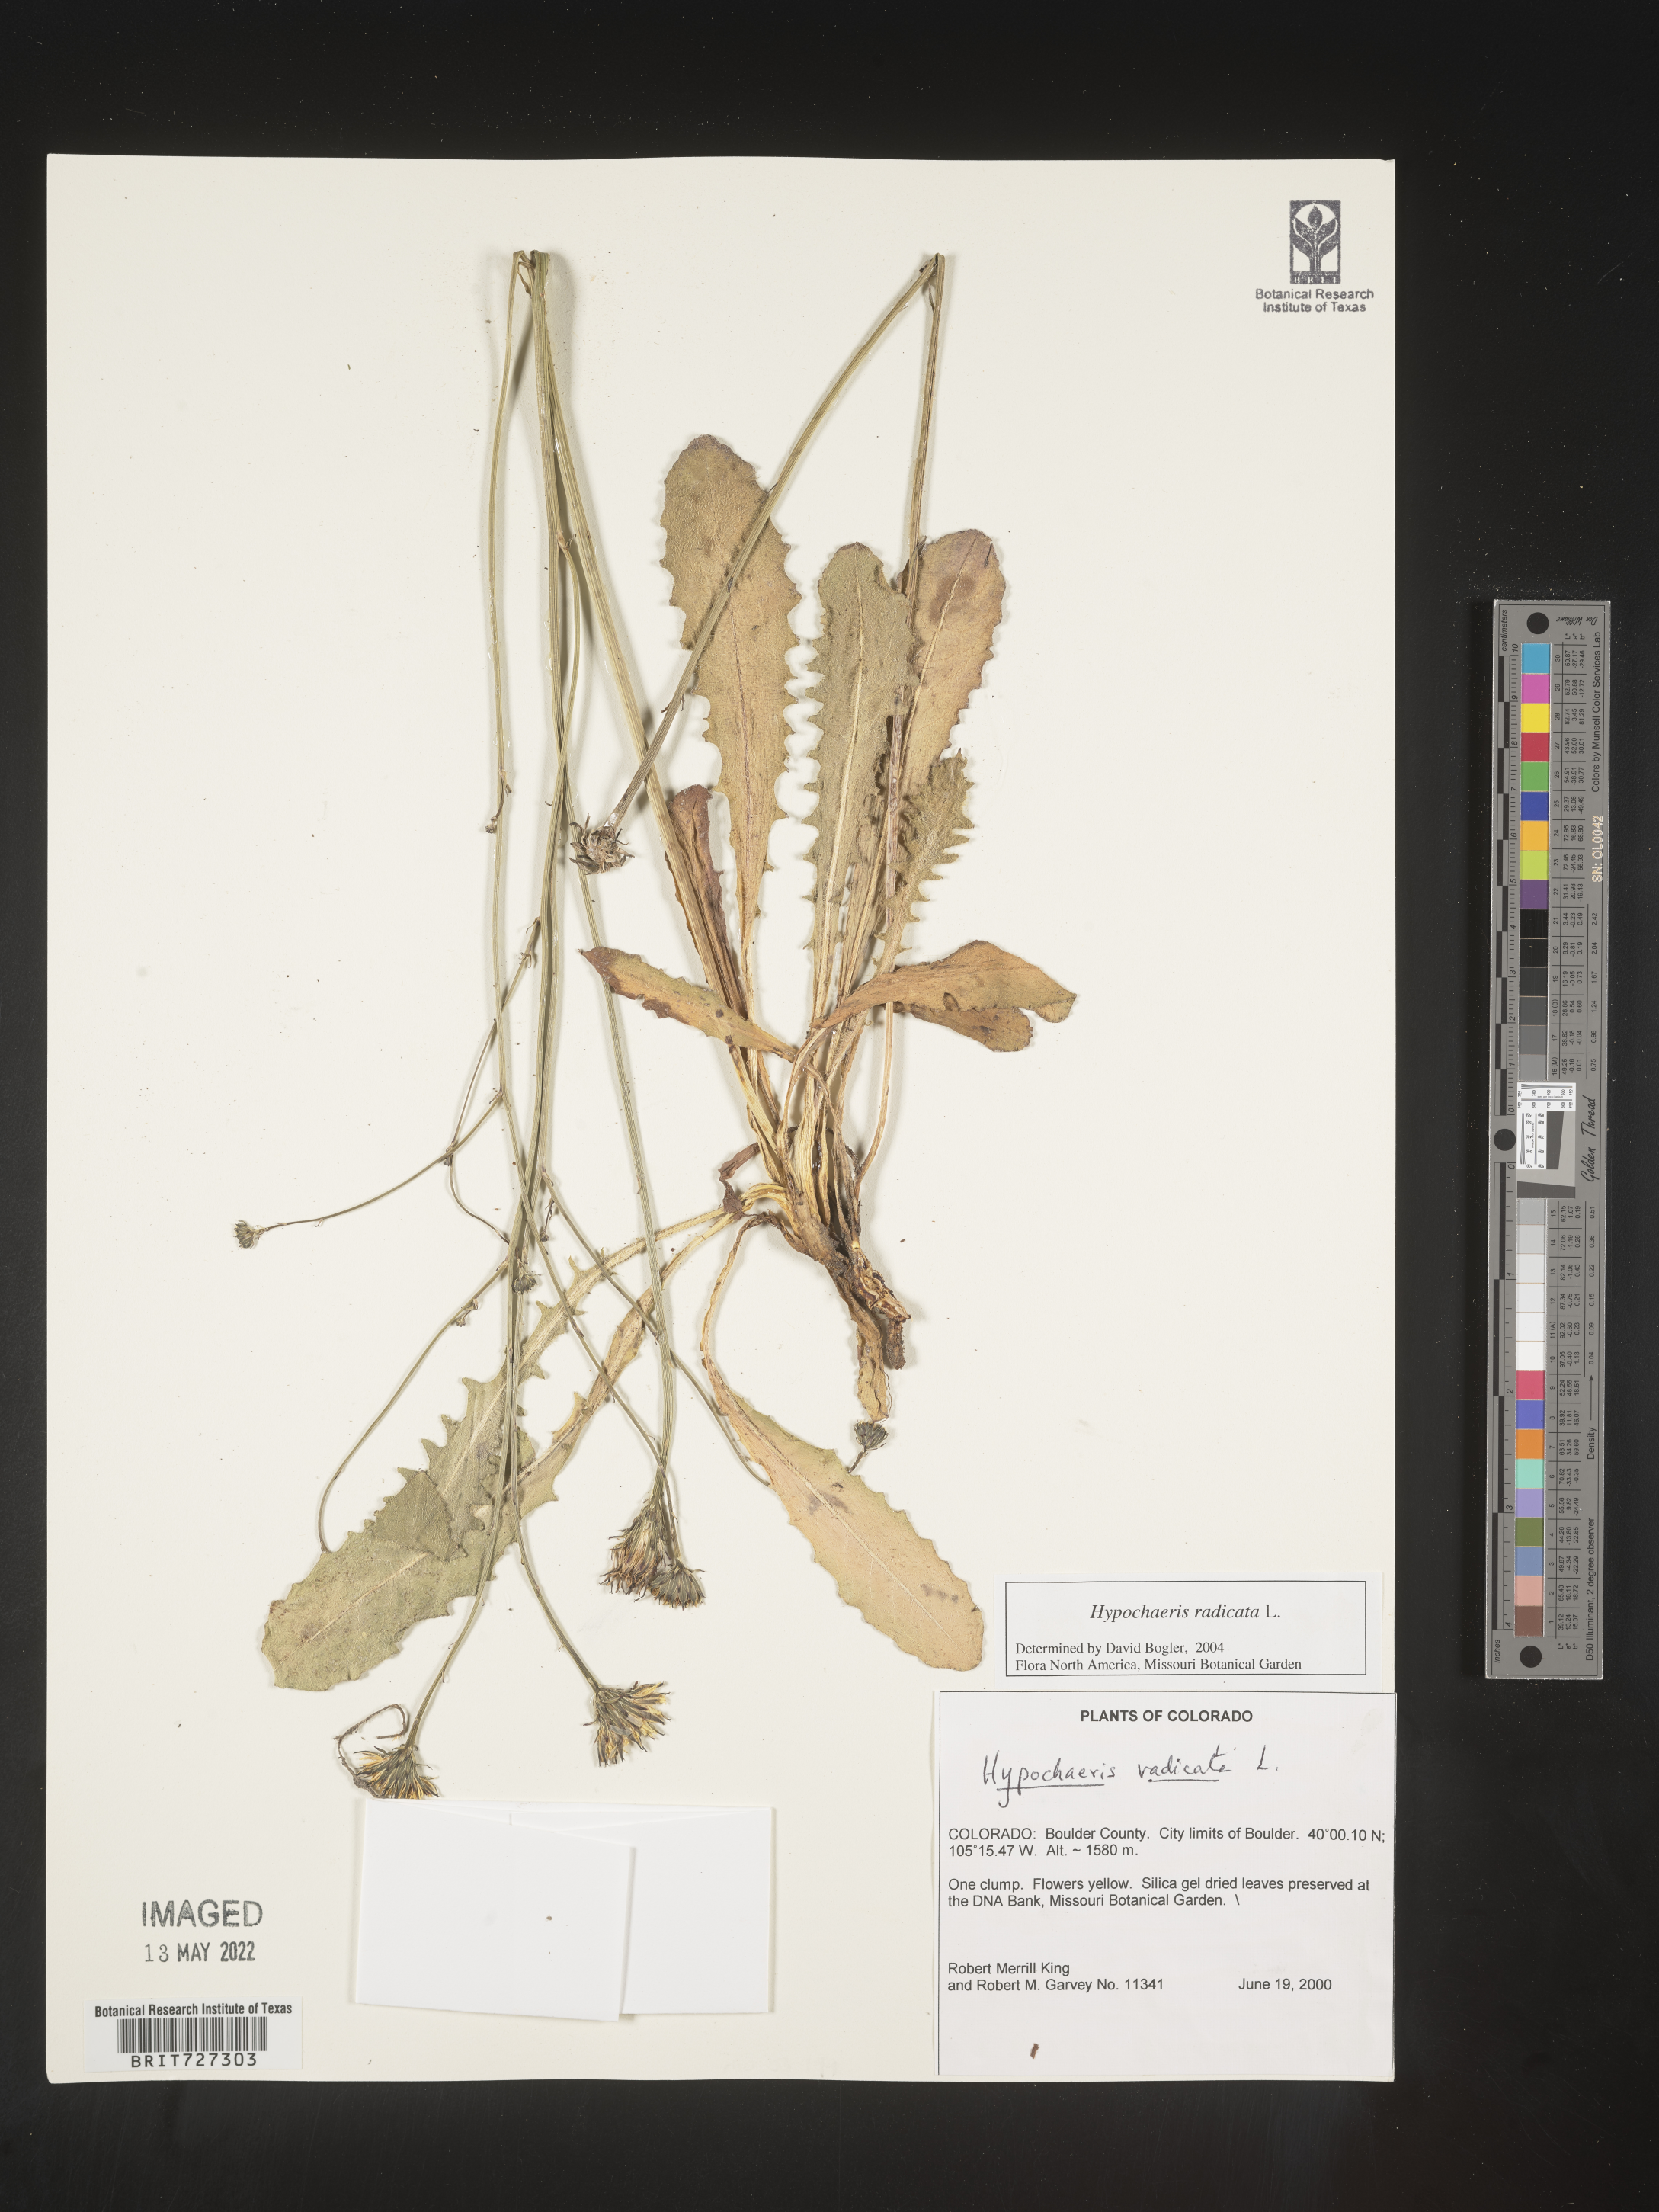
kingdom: Plantae
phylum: Tracheophyta
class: Magnoliopsida
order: Asterales
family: Asteraceae
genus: Hypochaeris
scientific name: Hypochaeris radicata
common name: Flatweed
